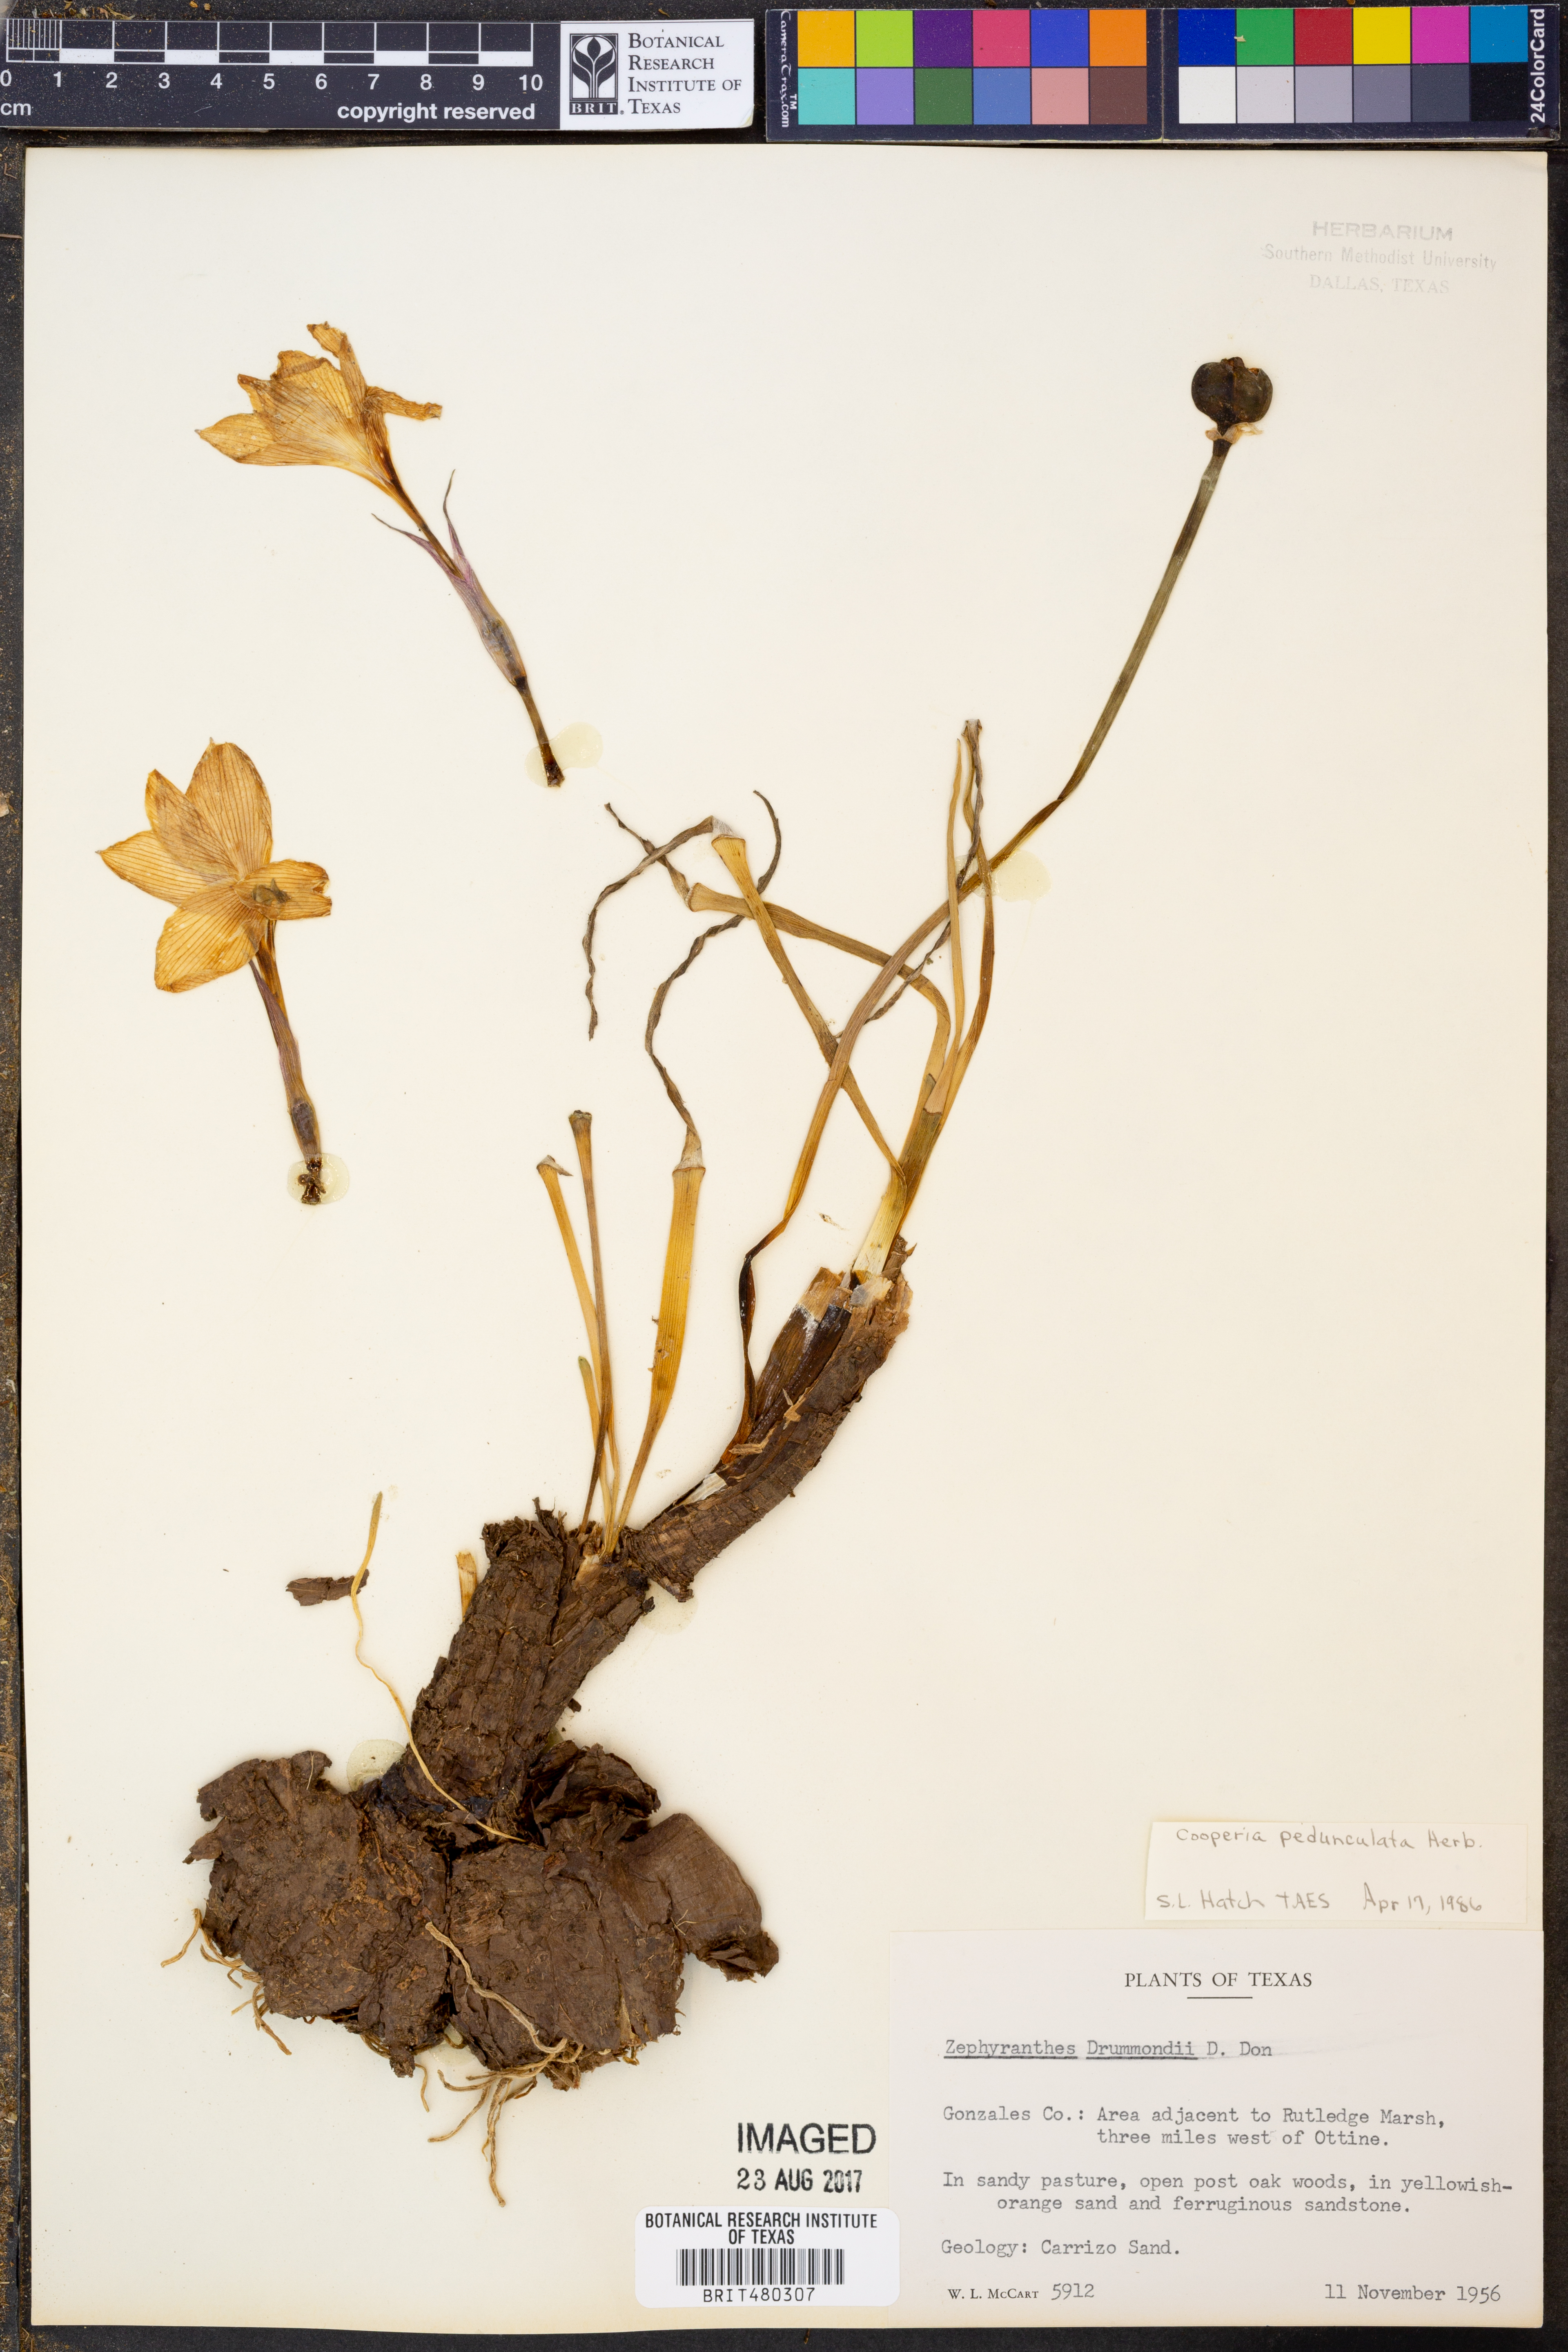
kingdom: Plantae
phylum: Tracheophyta
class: Liliopsida
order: Asparagales
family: Amaryllidaceae
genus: Zephyranthes
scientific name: Zephyranthes drummondii
